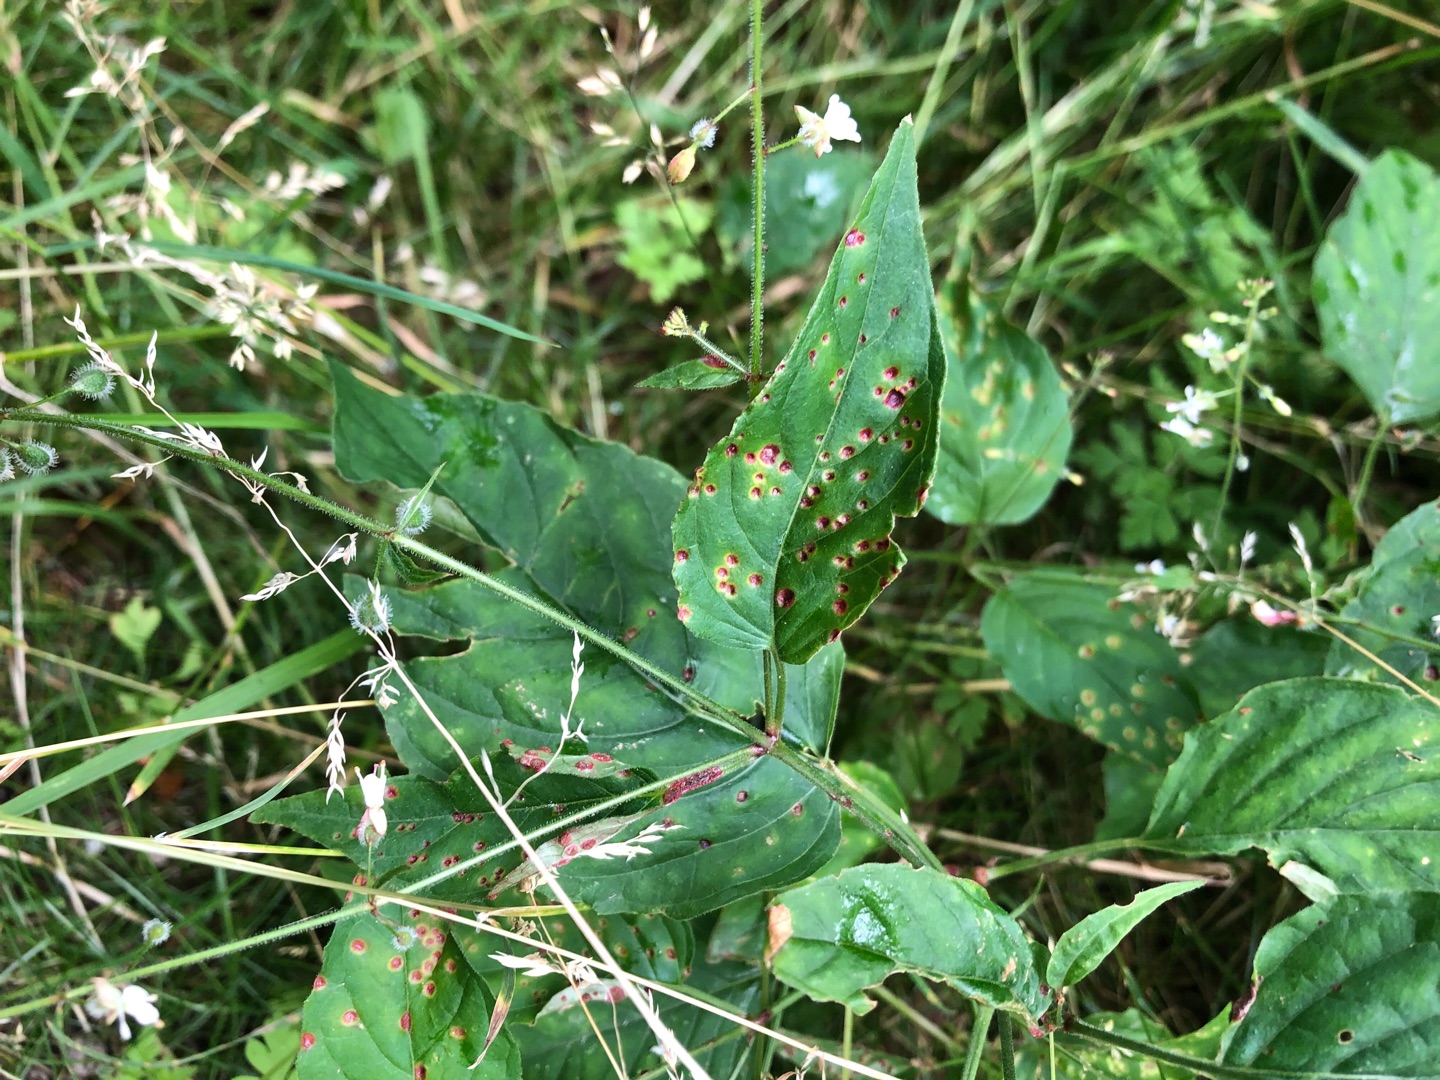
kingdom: Plantae
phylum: Tracheophyta
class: Magnoliopsida
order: Myrtales
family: Onagraceae
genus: Circaea
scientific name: Circaea lutetiana
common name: Dunet steffensurt
